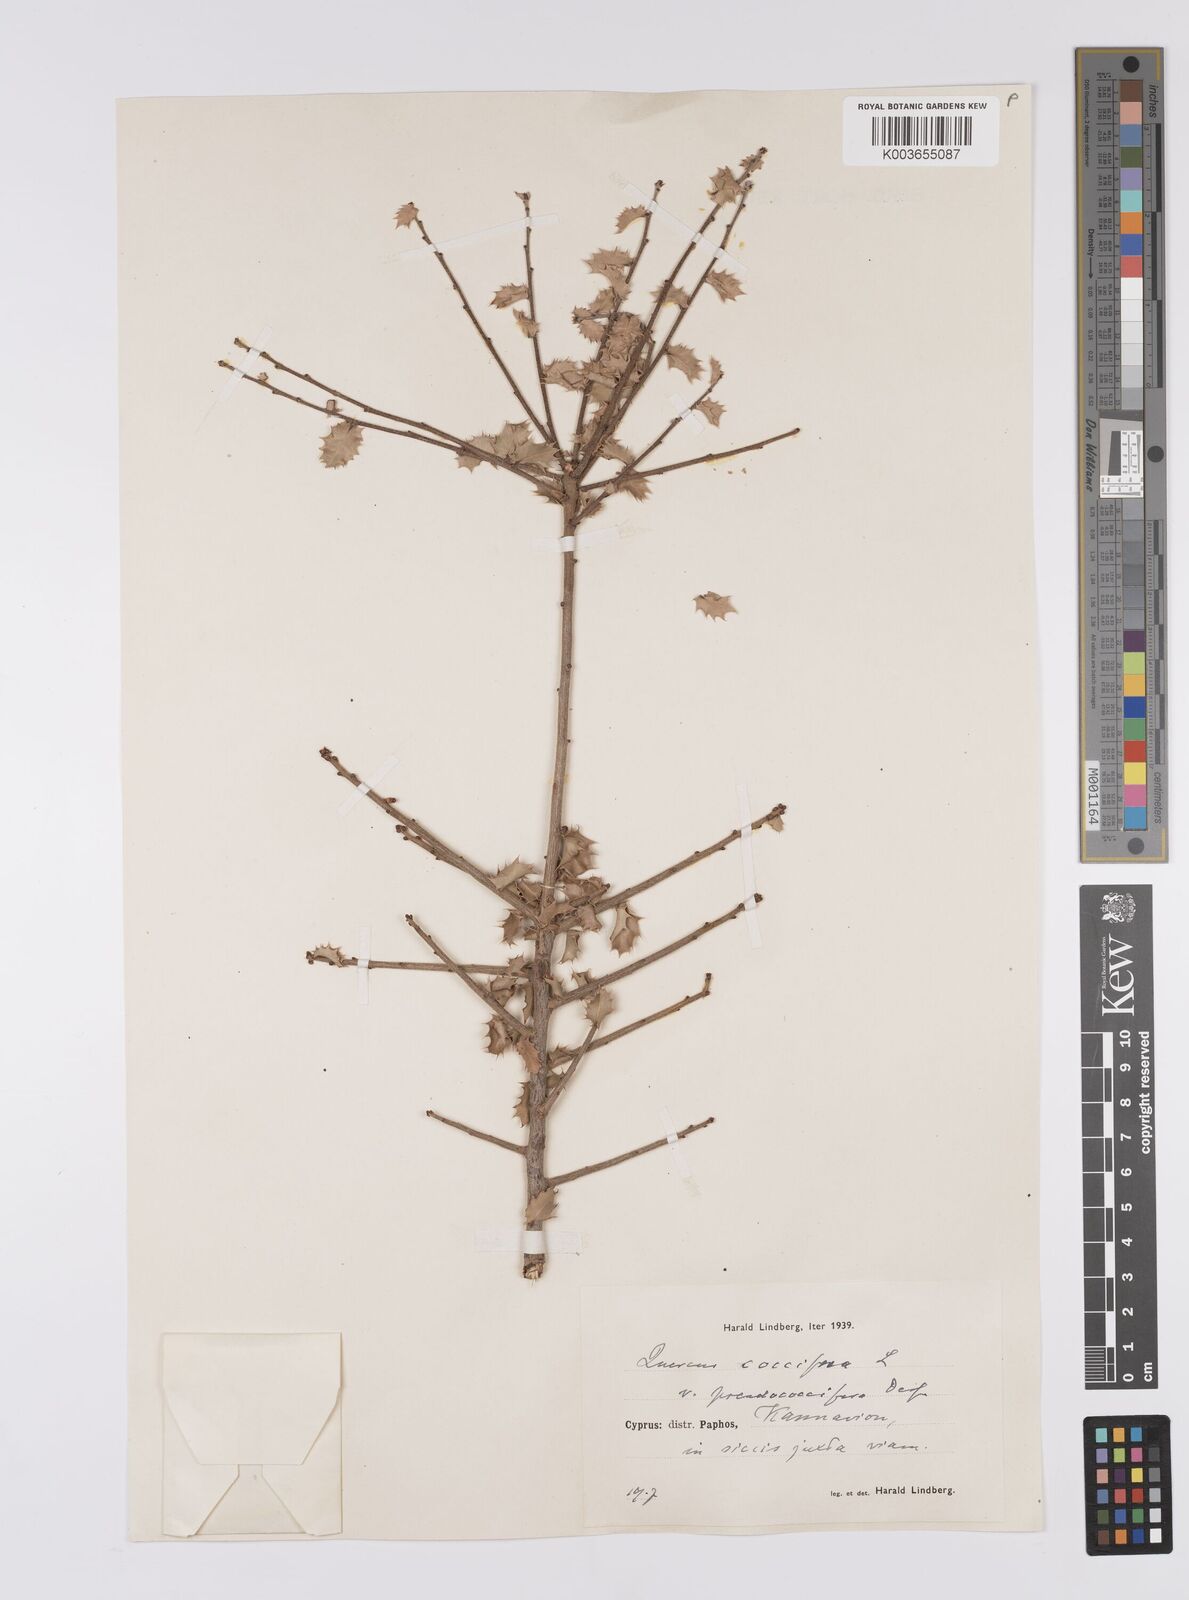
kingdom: Plantae
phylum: Tracheophyta
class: Magnoliopsida
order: Fagales
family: Fagaceae
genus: Quercus
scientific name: Quercus coccifera
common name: Kermes oak
